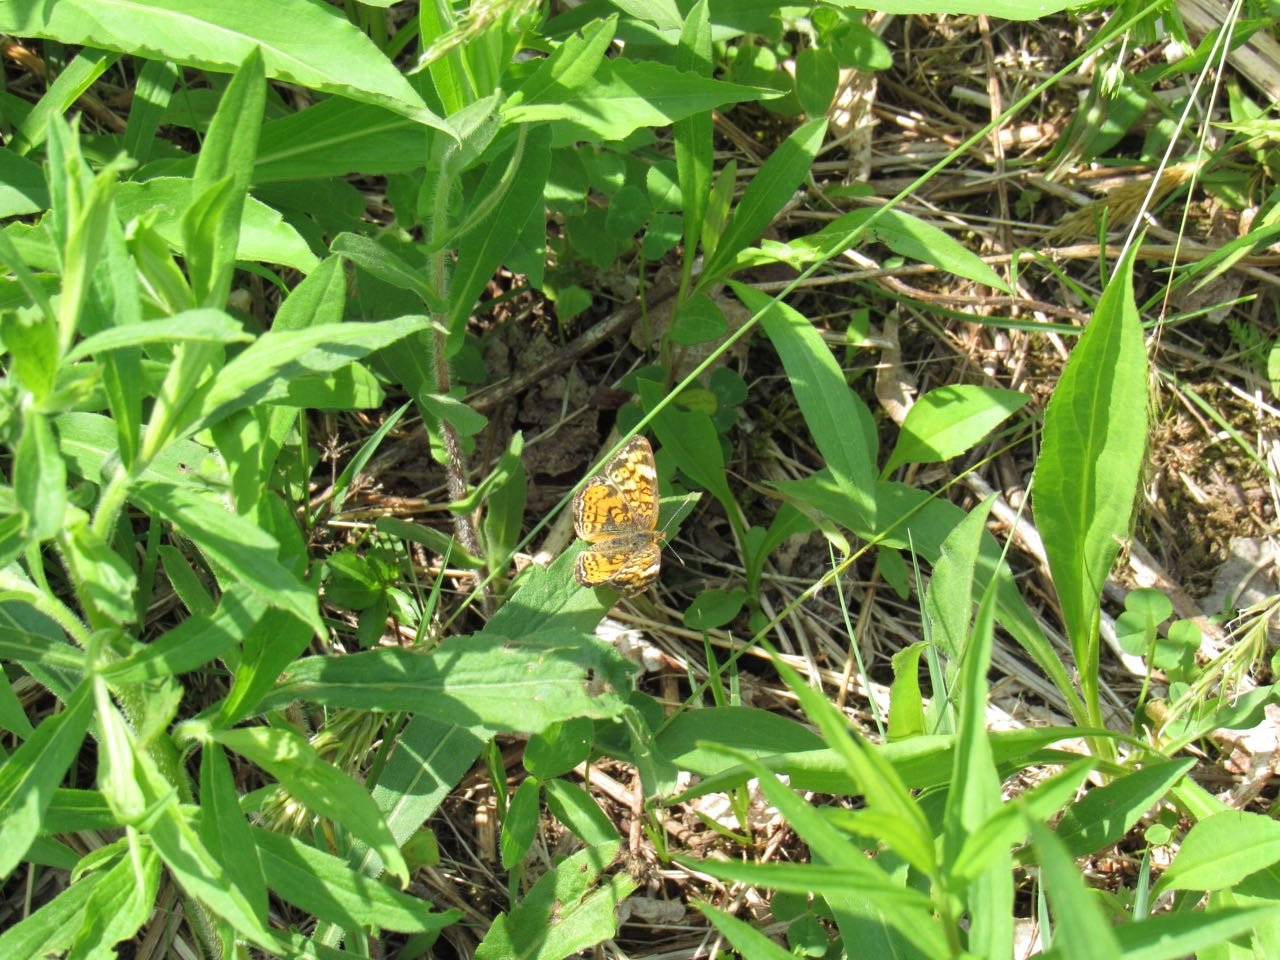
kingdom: Animalia
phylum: Arthropoda
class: Insecta
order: Lepidoptera
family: Nymphalidae
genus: Phyciodes
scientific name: Phyciodes tharos
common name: Pearl Crescent
